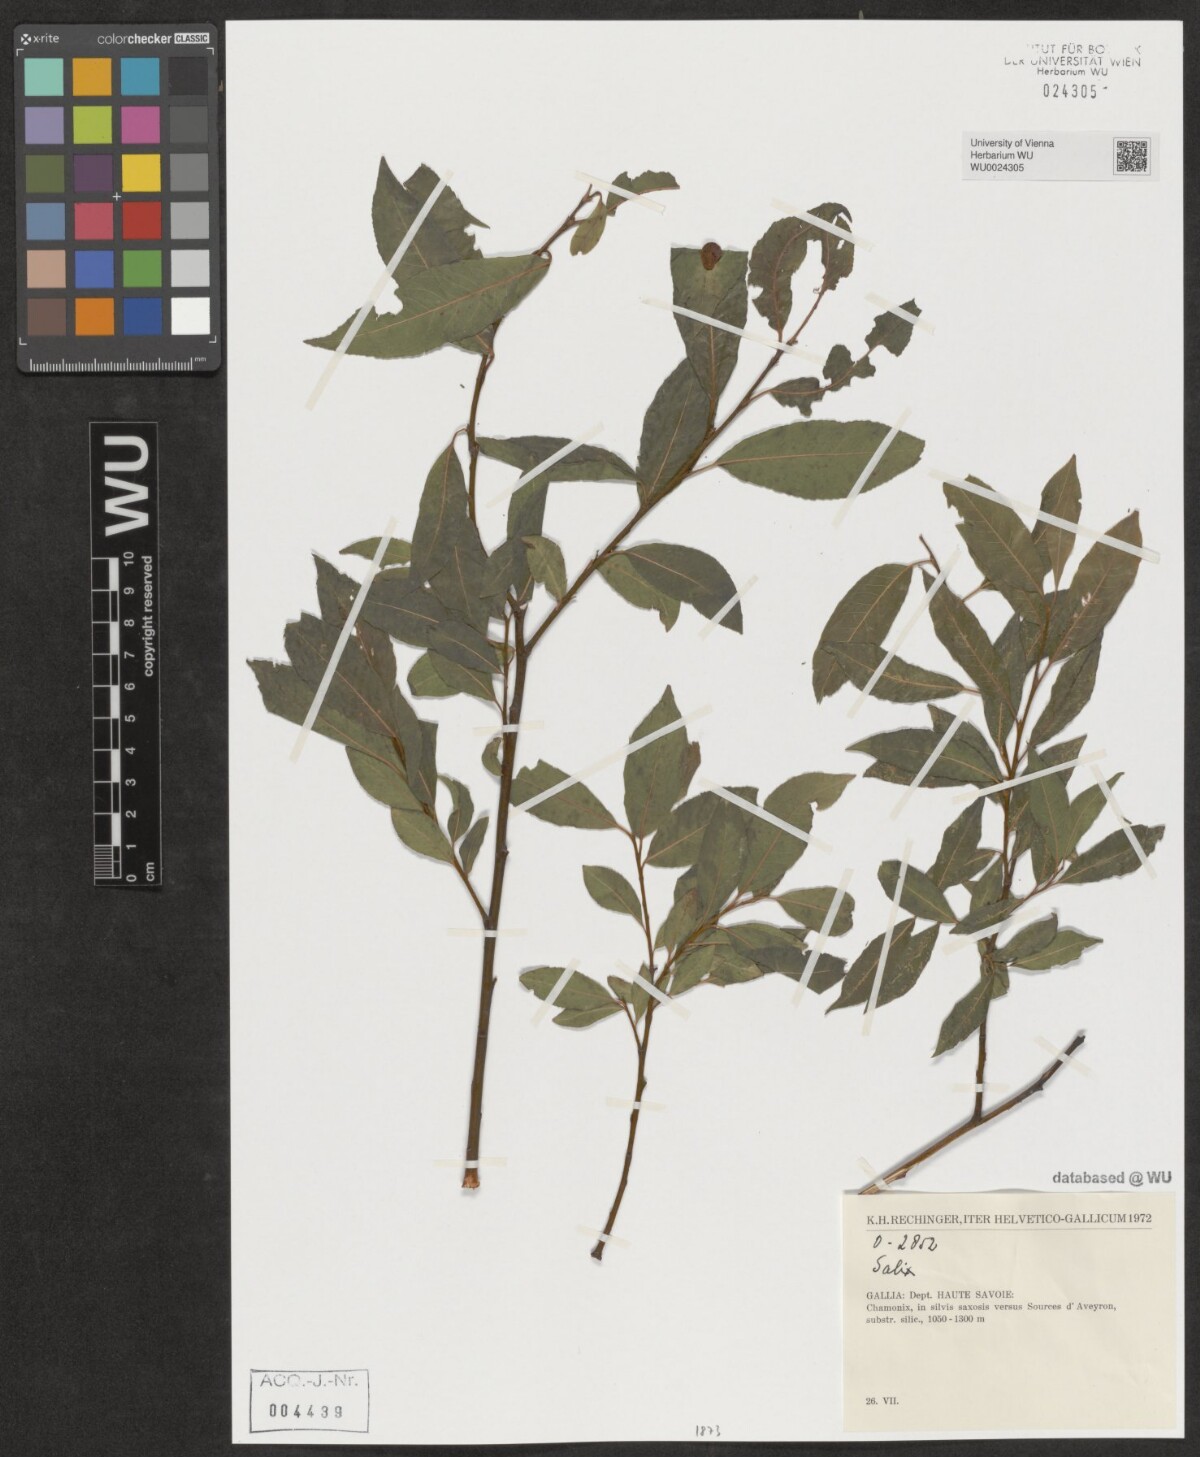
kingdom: Plantae
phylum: Tracheophyta
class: Magnoliopsida
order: Malpighiales
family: Salicaceae
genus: Salix
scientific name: Salix
